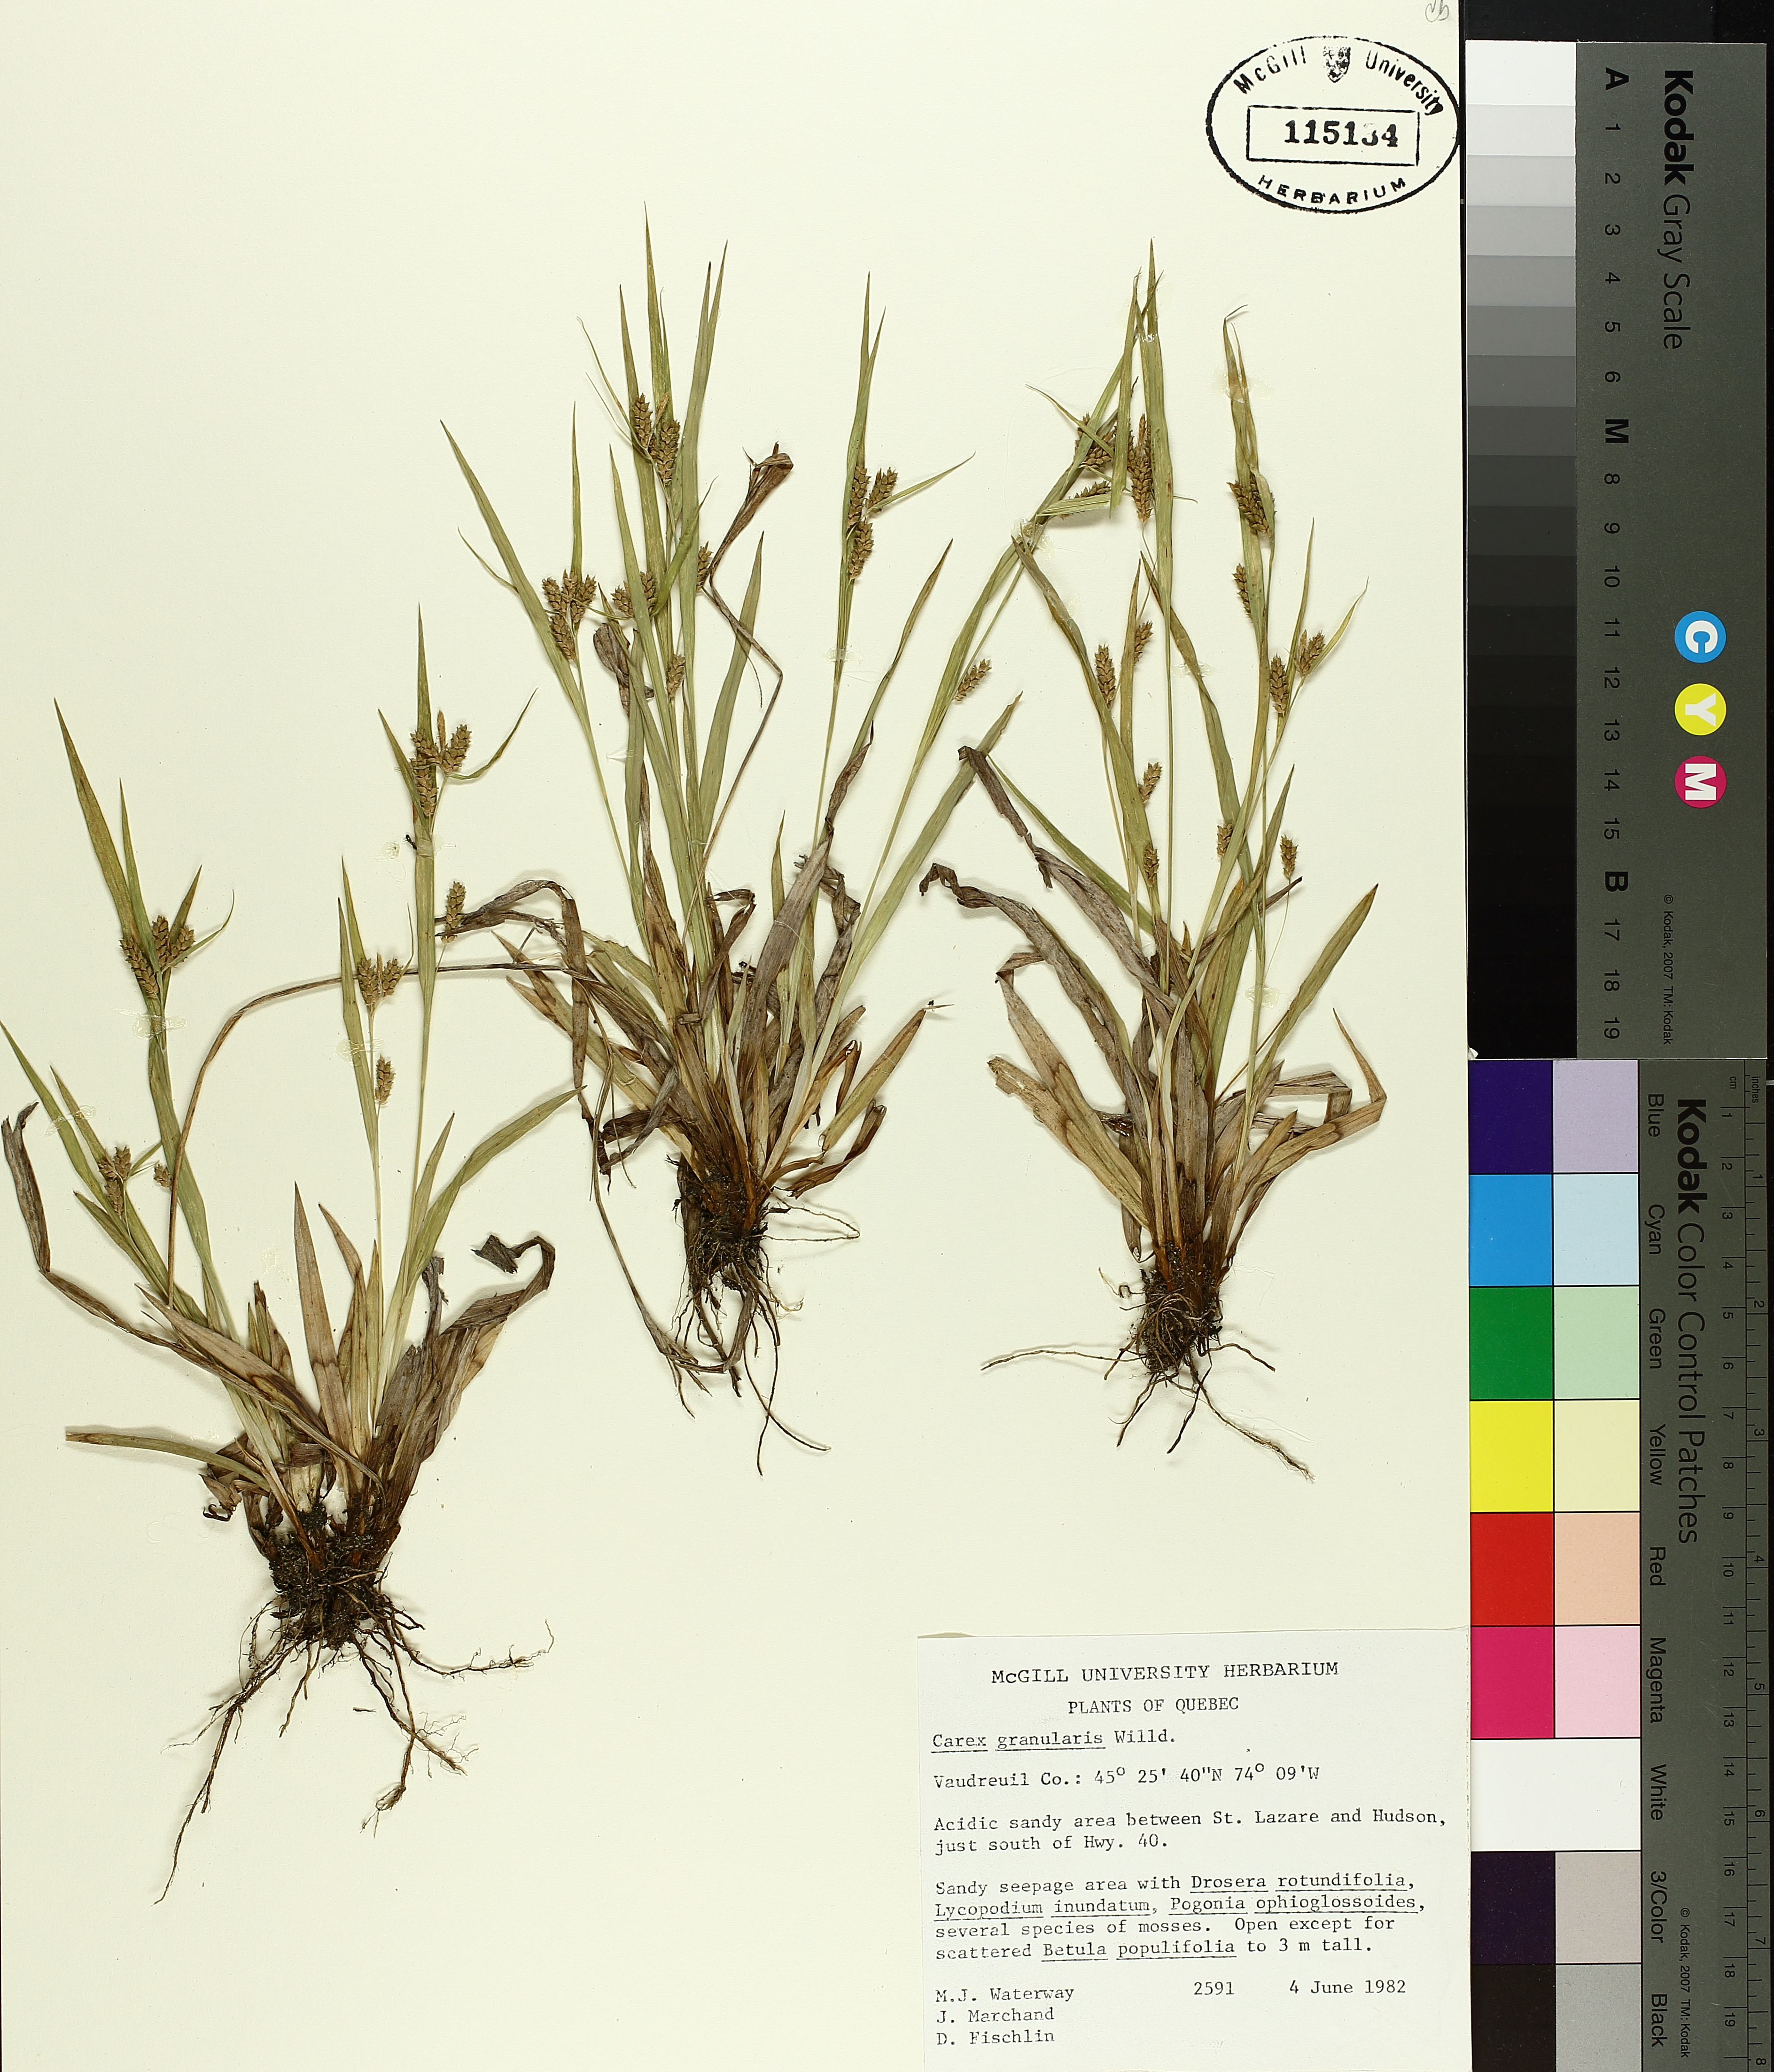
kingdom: Plantae
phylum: Tracheophyta
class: Liliopsida
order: Poales
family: Cyperaceae
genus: Carex
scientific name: Carex granularis
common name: Granular sedge
